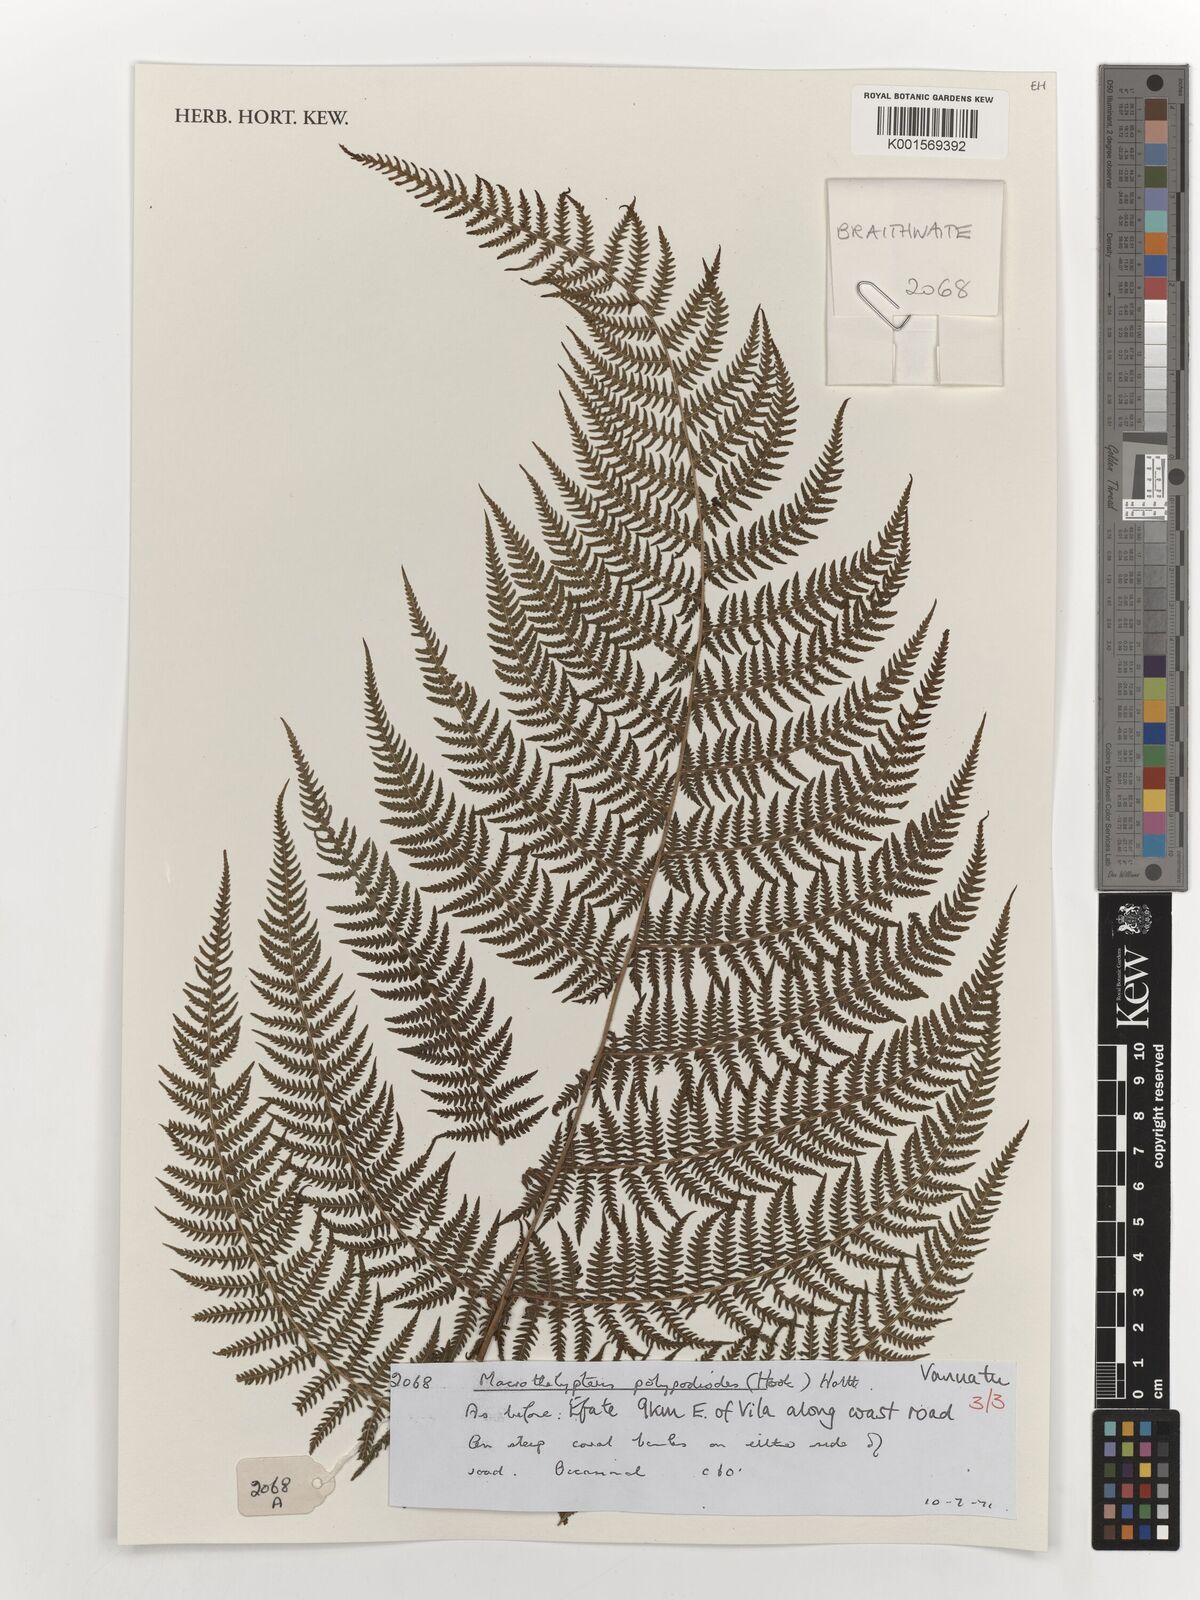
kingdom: Plantae
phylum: Tracheophyta
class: Polypodiopsida
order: Polypodiales
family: Thelypteridaceae
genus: Macrothelypteris
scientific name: Macrothelypteris polypodioides
